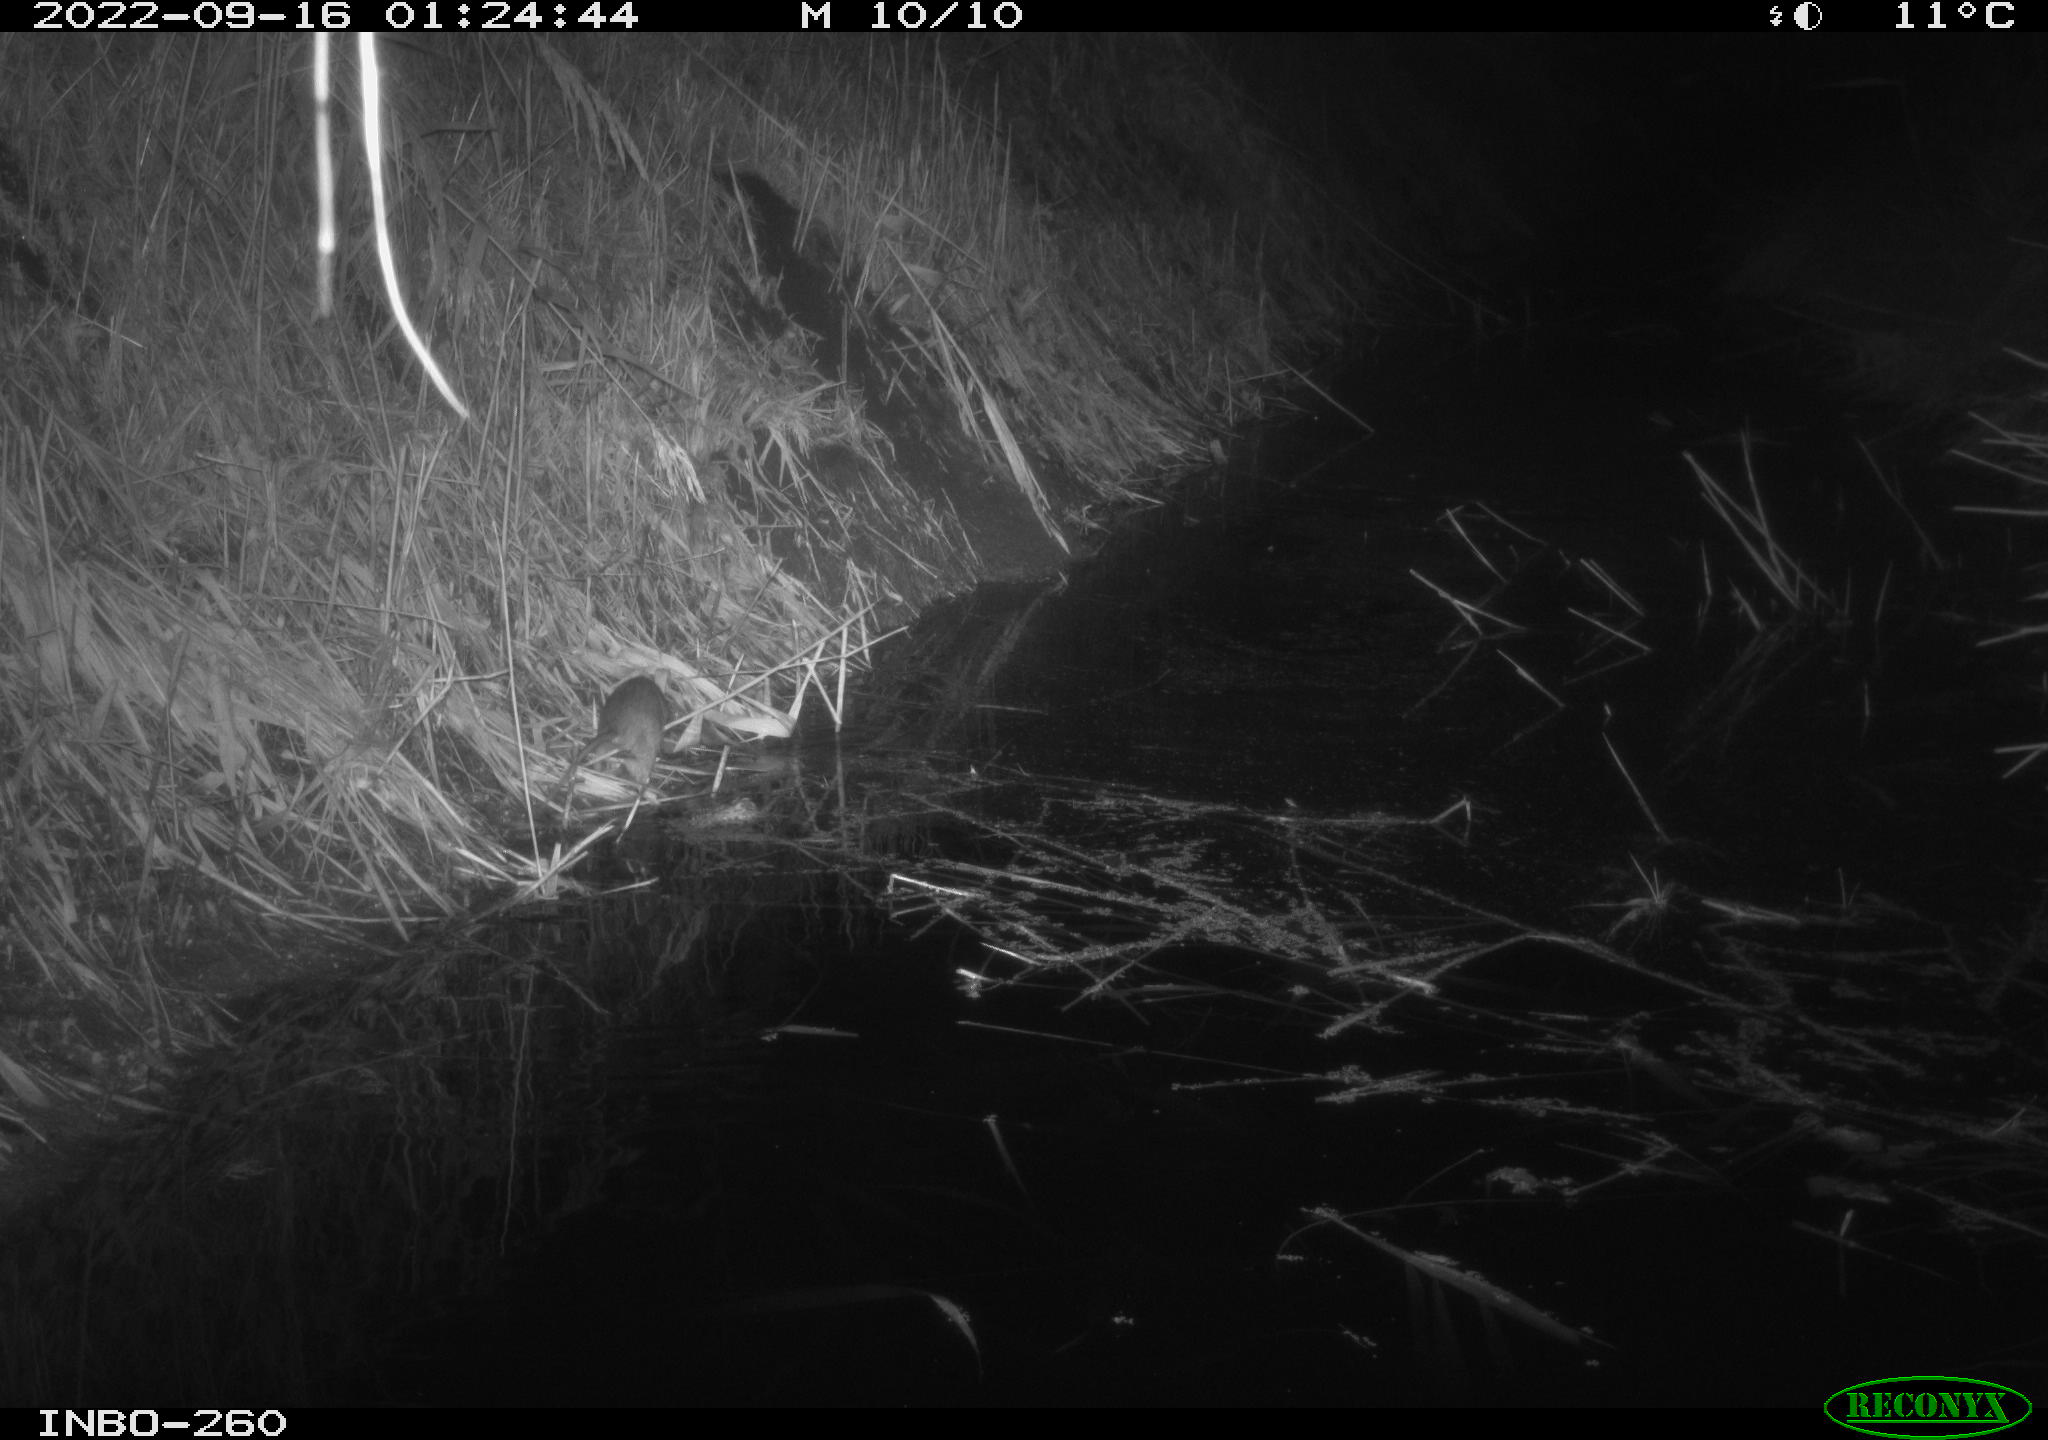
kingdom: Animalia
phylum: Chordata
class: Mammalia
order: Rodentia
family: Muridae
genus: Rattus
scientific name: Rattus norvegicus
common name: Brown rat
